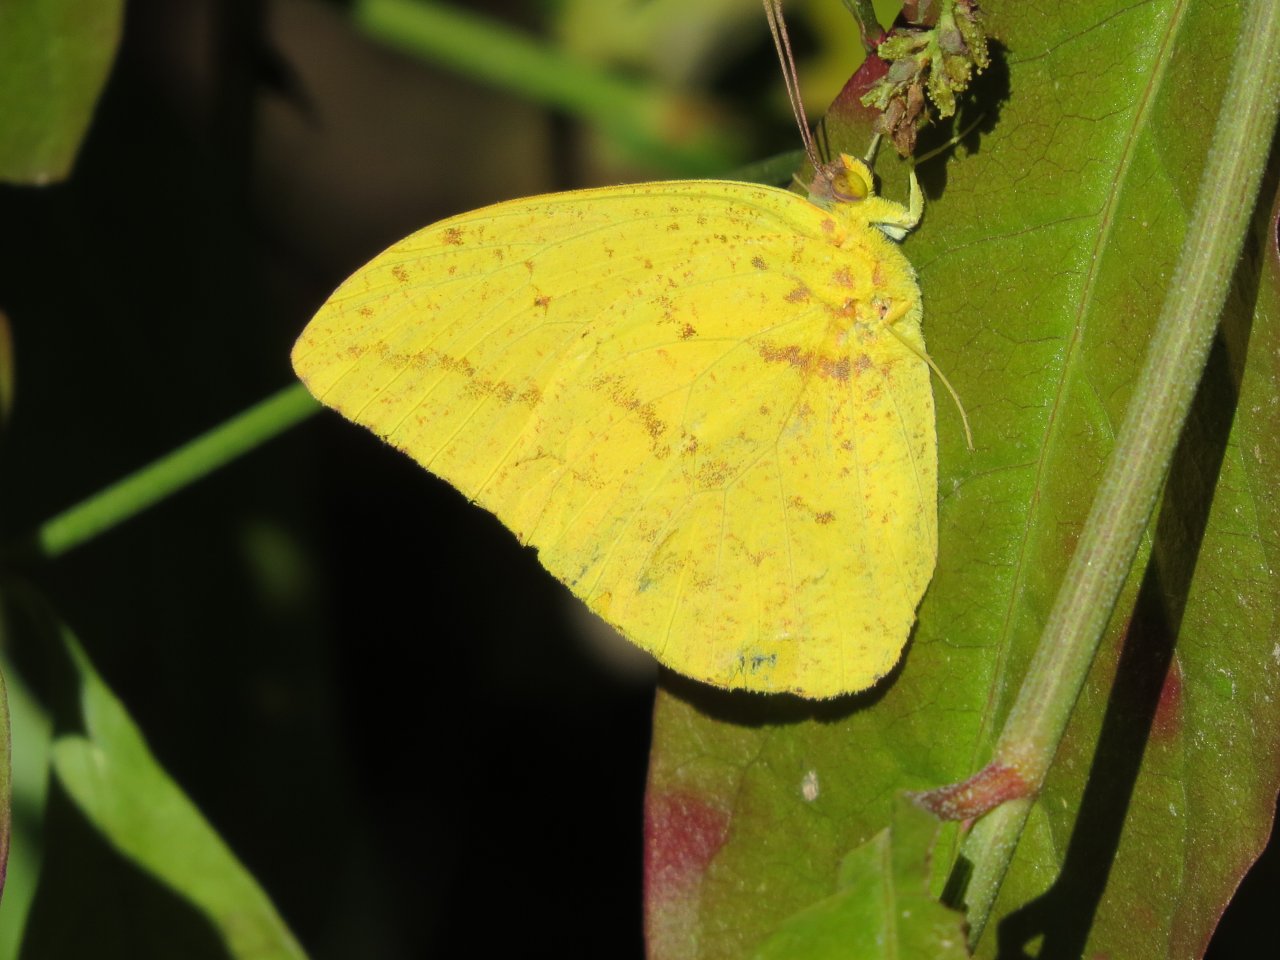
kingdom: Animalia
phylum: Arthropoda
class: Insecta
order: Lepidoptera
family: Pieridae
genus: Phoebis
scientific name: Phoebis agarithe
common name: Large Orange Sulphur
